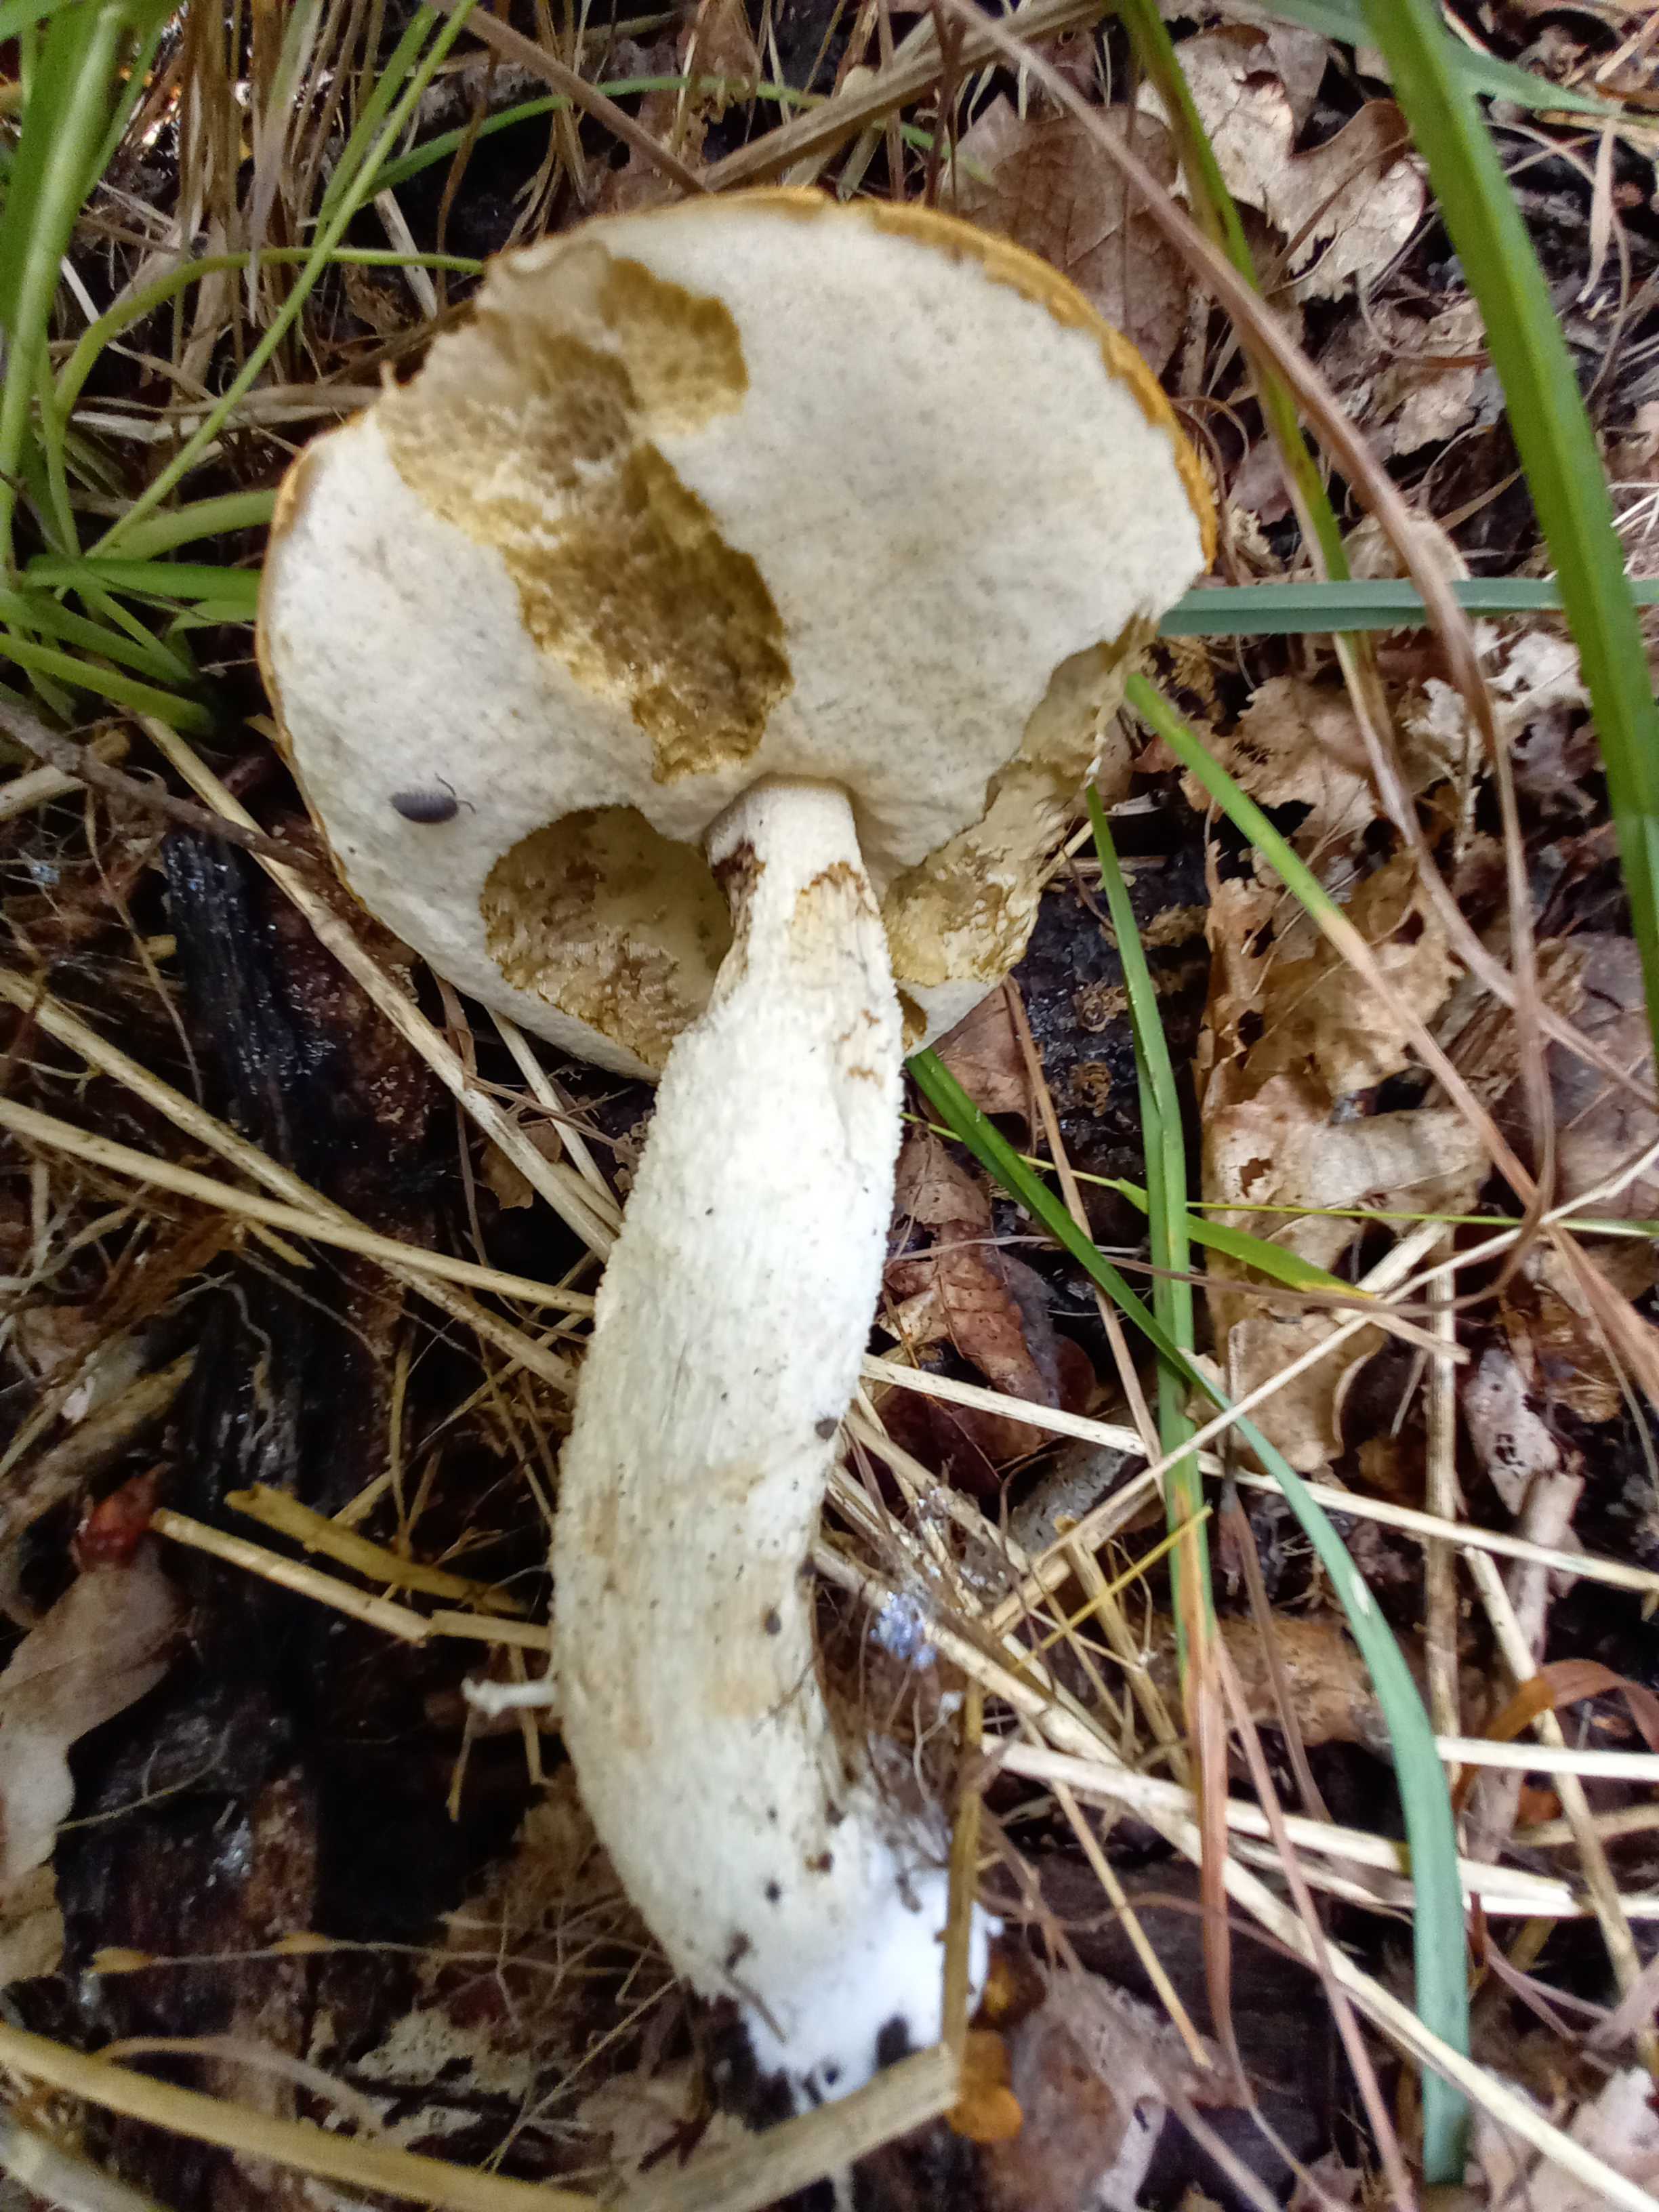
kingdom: Fungi
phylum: Basidiomycota
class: Agaricomycetes
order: Boletales
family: Boletaceae
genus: Leccinum
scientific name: Leccinum
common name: skælrørhat
